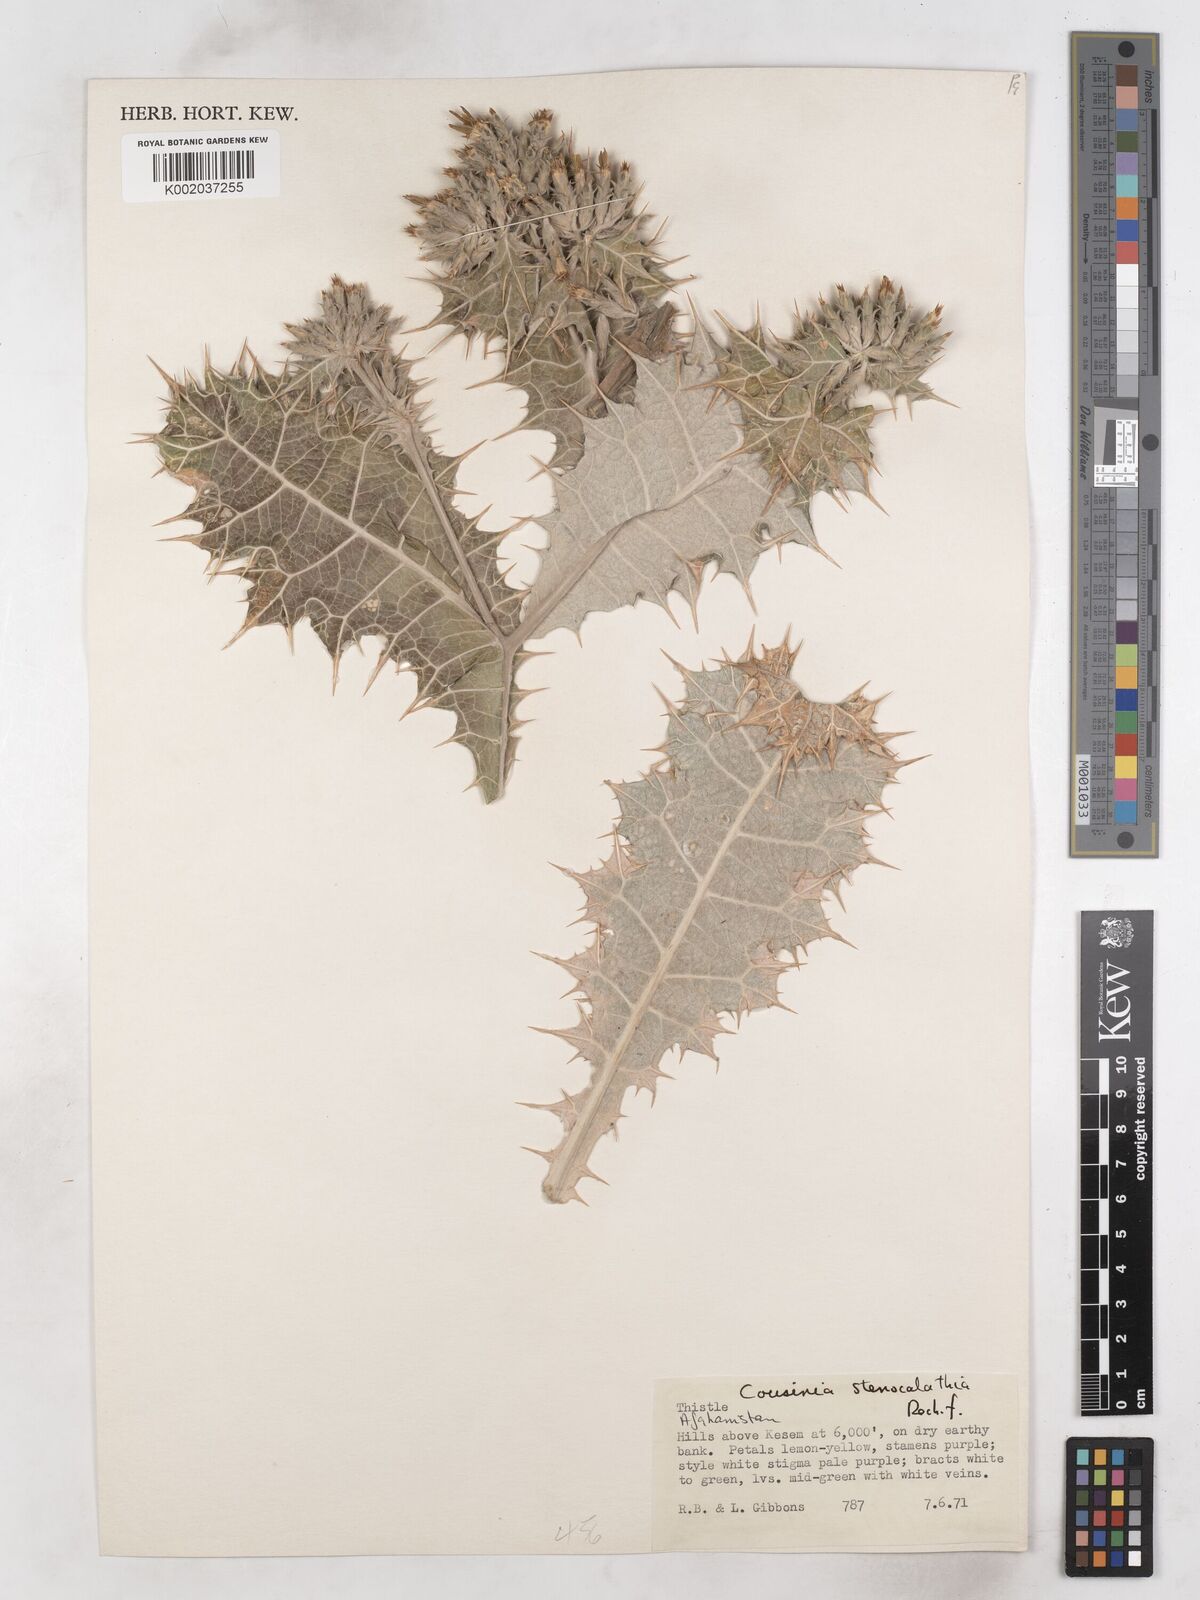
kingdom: Plantae
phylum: Tracheophyta
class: Magnoliopsida
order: Asterales
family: Asteraceae
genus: Cousinia
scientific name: Cousinia stenocalathia
